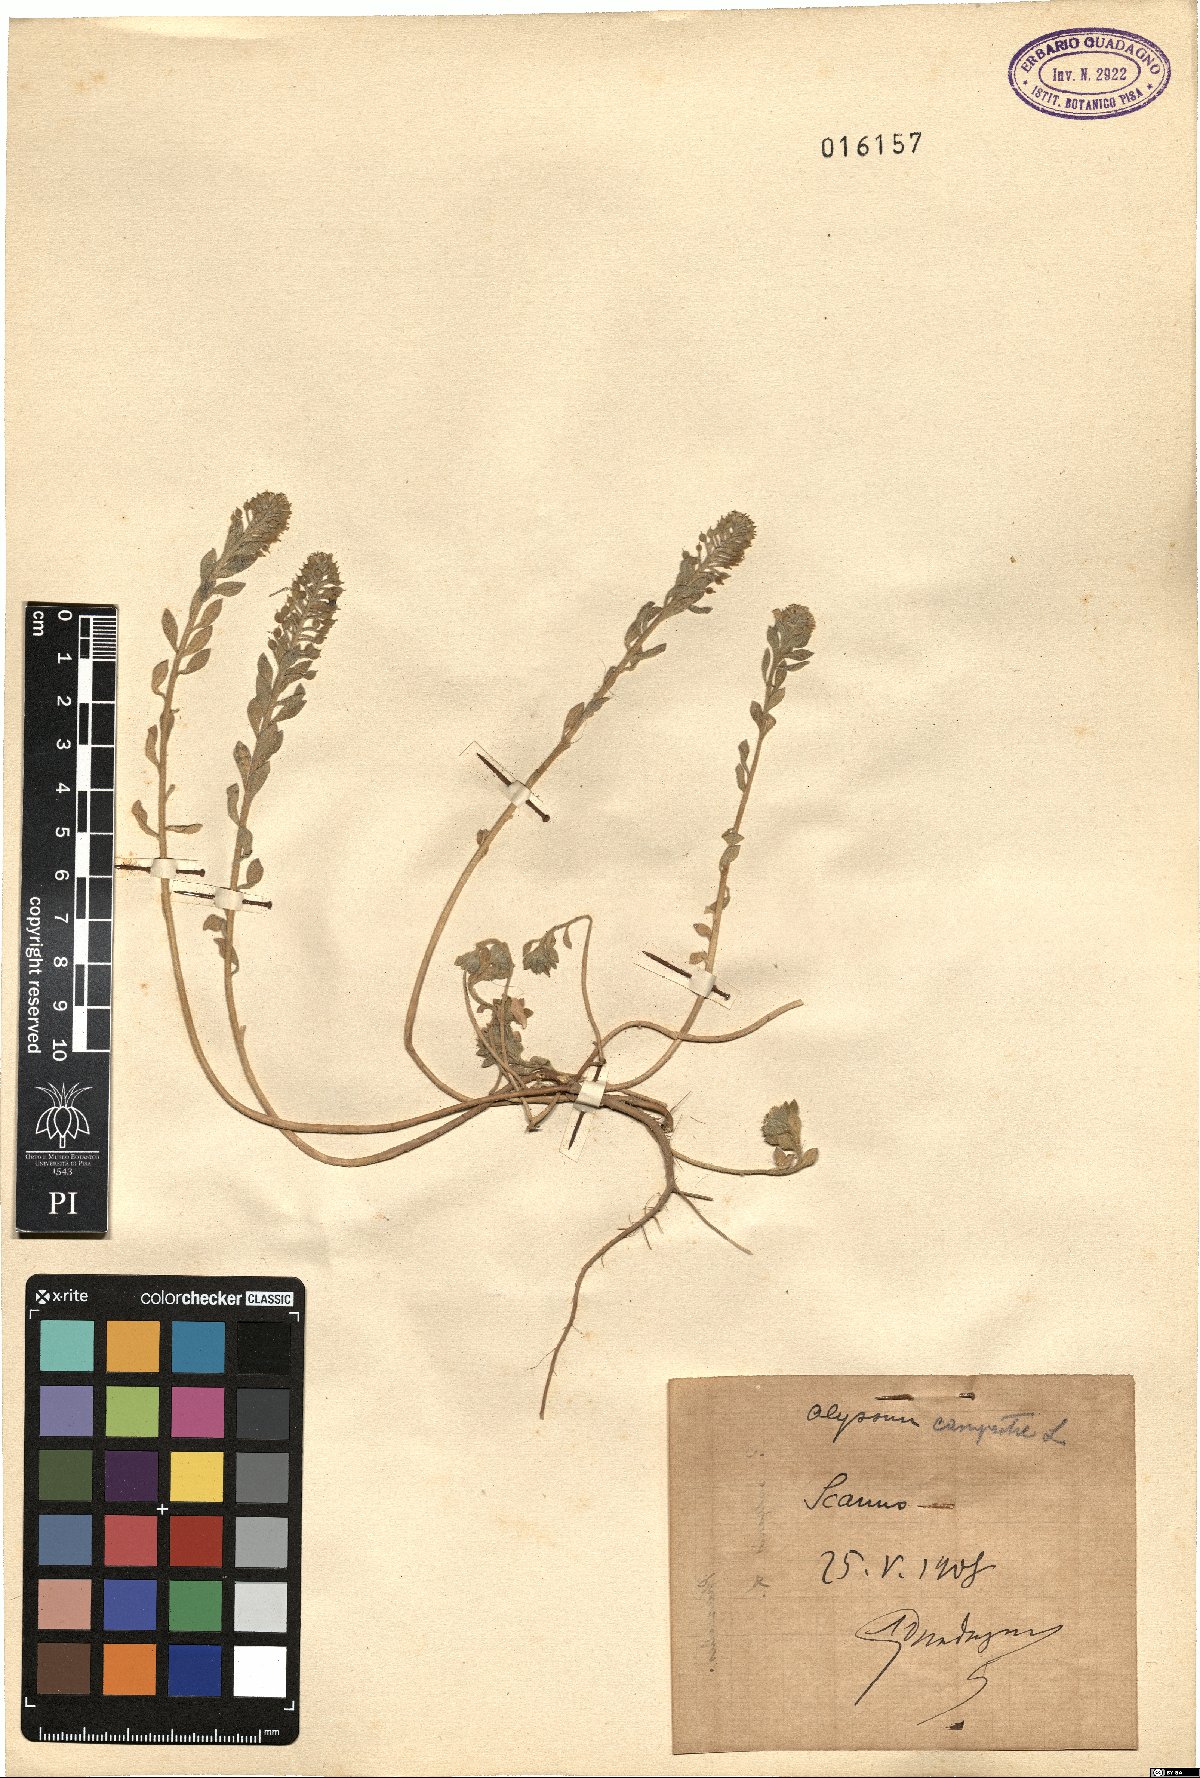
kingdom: Plantae
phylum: Tracheophyta
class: Magnoliopsida
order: Brassicales
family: Brassicaceae
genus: Alyssum
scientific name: Alyssum alyssoides
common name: Small alison
